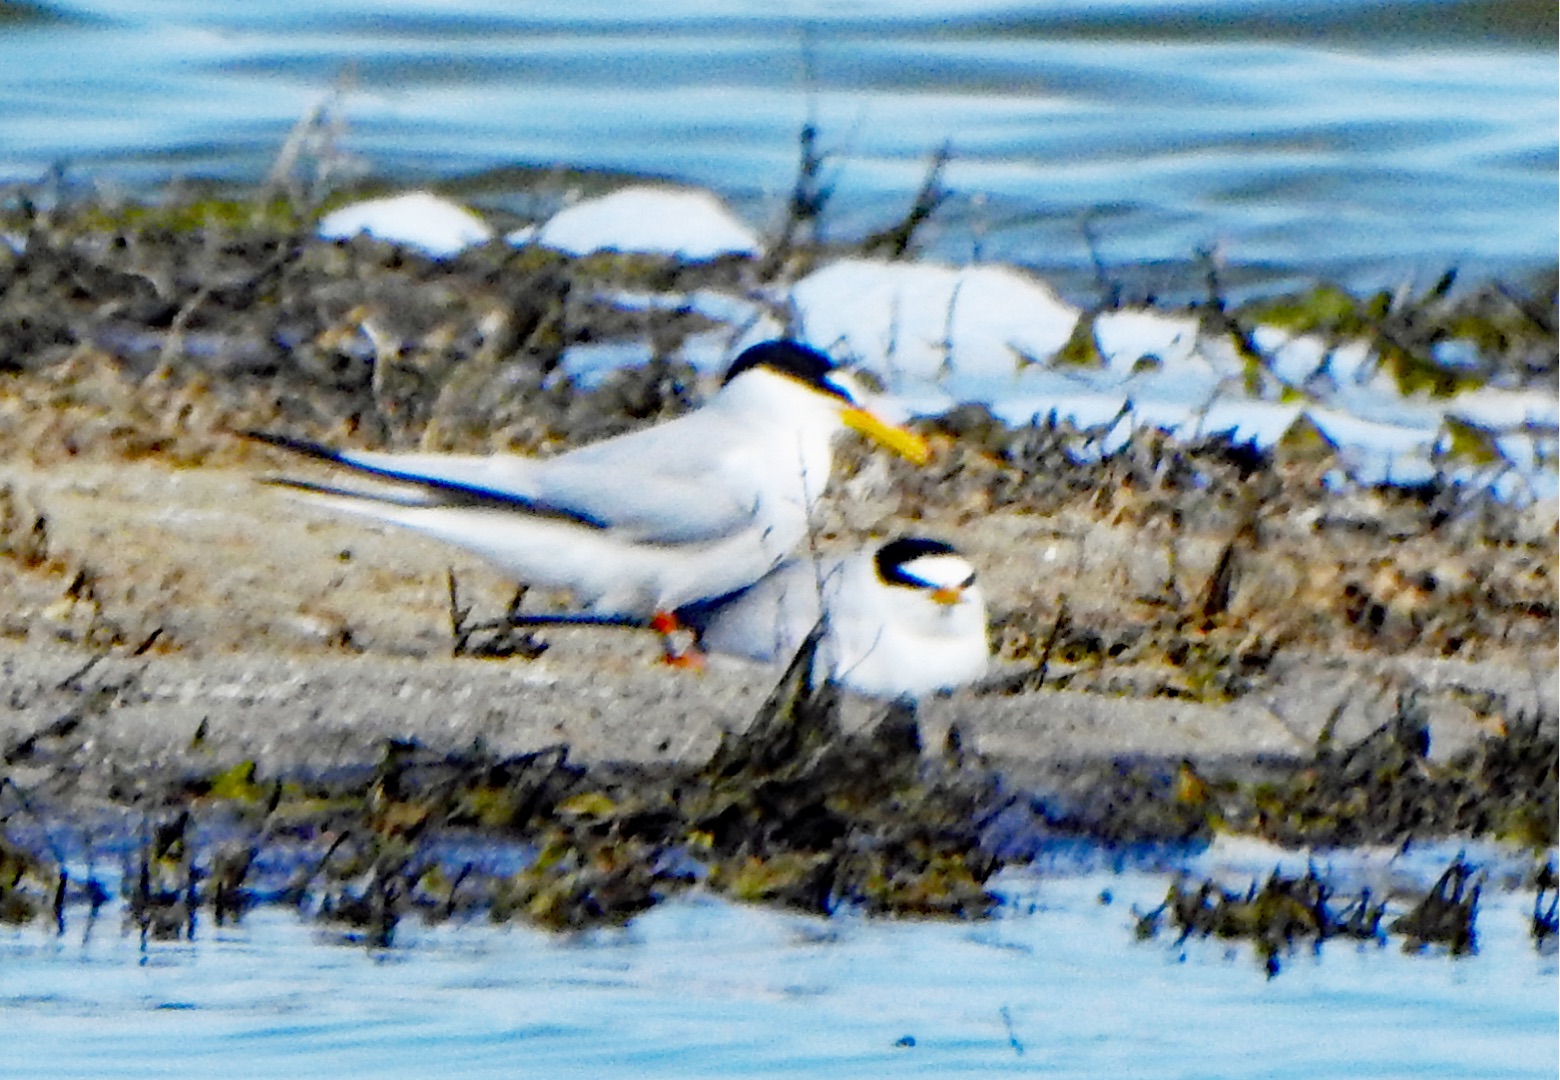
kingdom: Animalia
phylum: Chordata
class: Aves
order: Charadriiformes
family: Laridae
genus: Sternula
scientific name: Sternula albifrons
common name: Dværgterne
